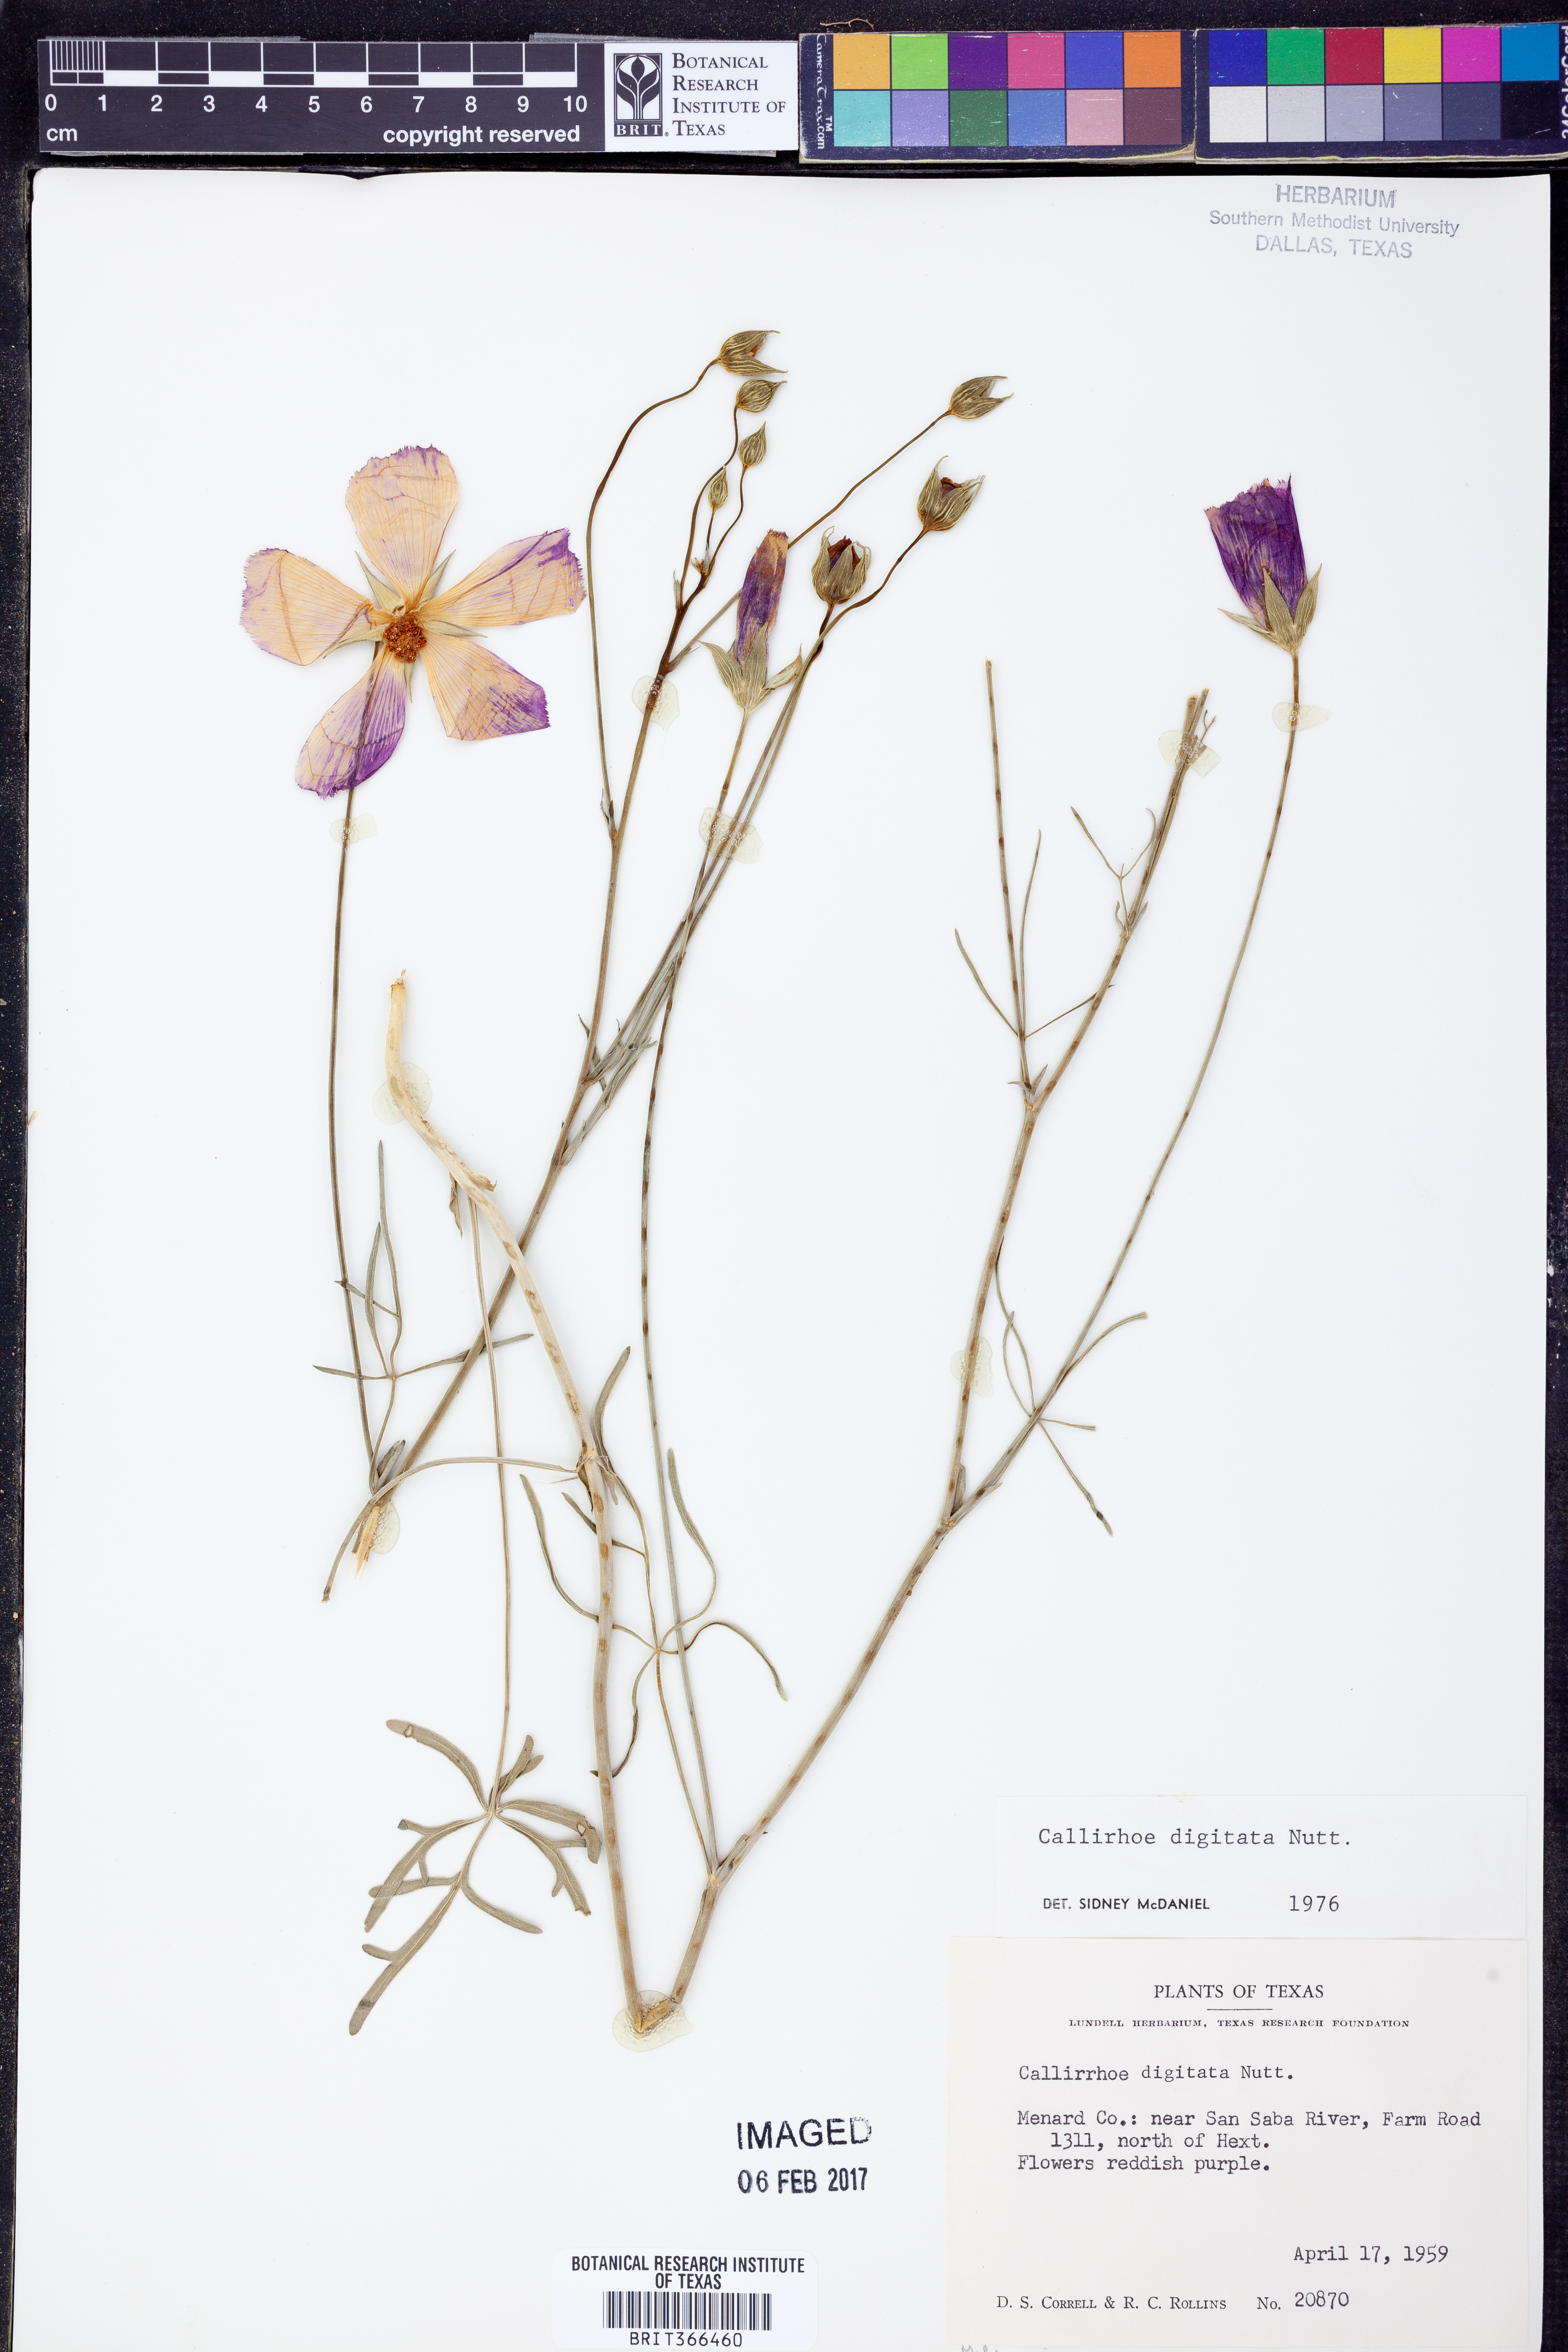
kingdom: Plantae
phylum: Tracheophyta
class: Magnoliopsida
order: Malvales
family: Malvaceae
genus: Callirhoe
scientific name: Callirhoe digitata
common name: Finger poppy-mallow
